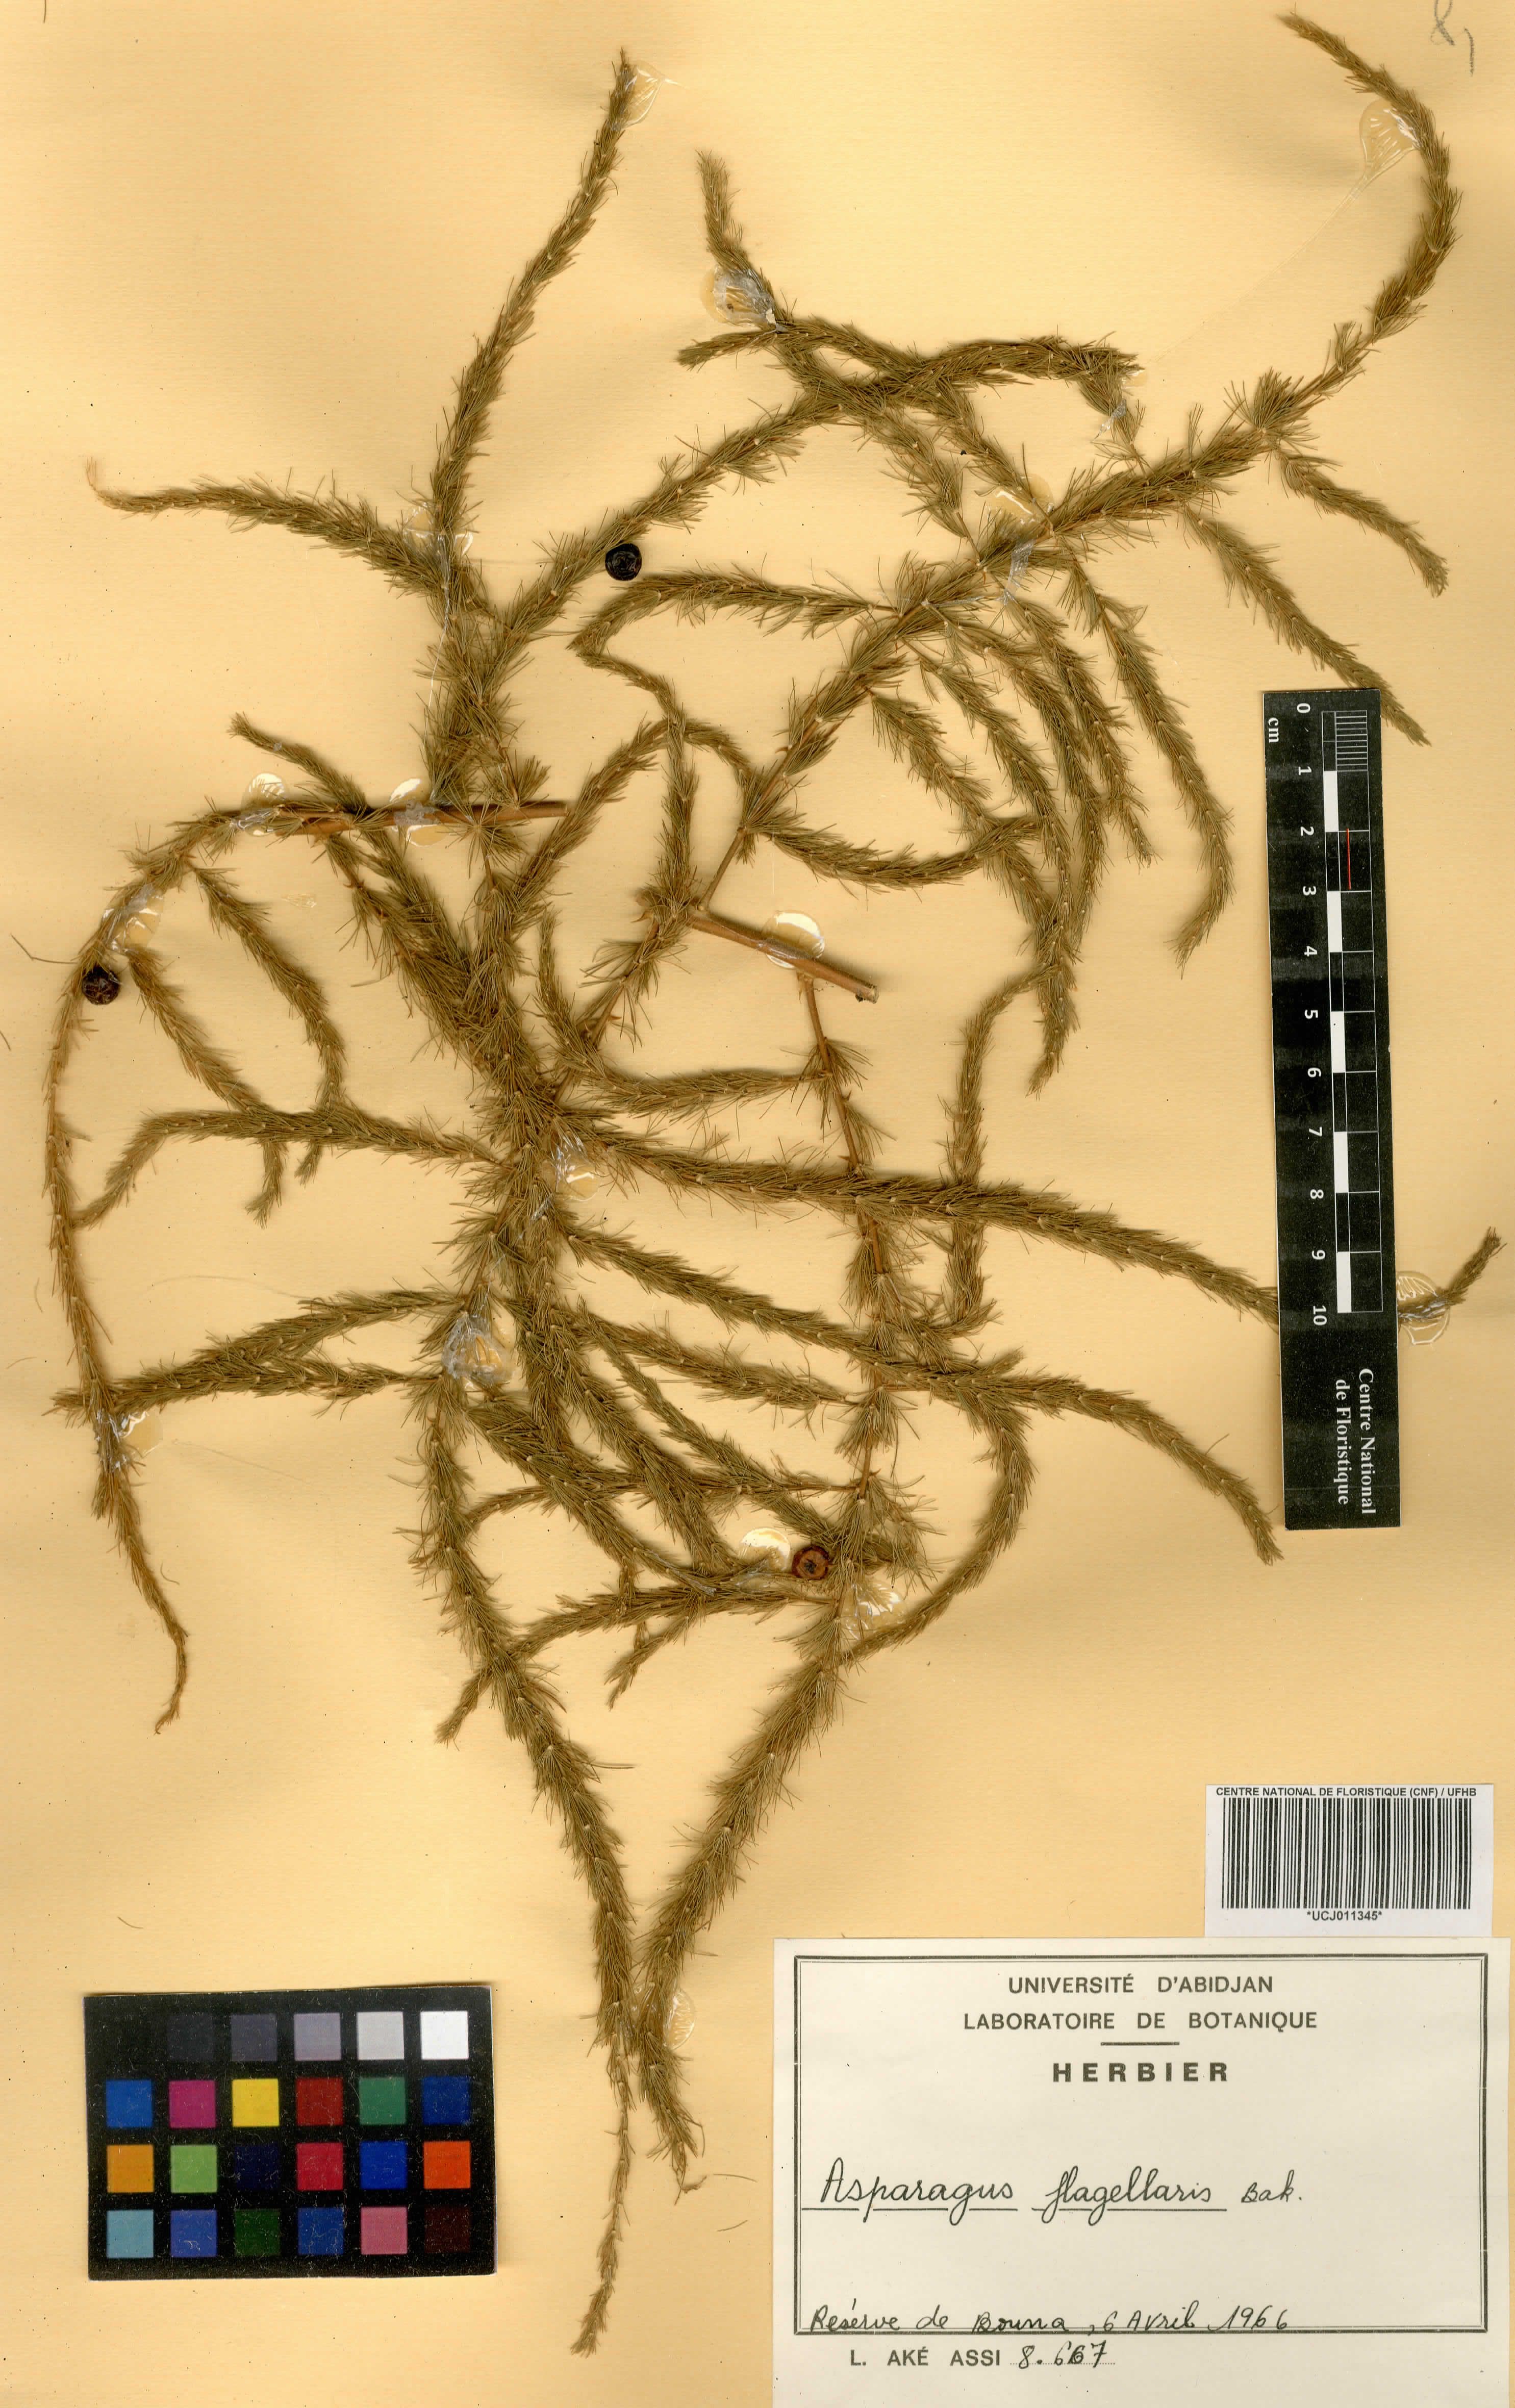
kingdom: Plantae
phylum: Tracheophyta
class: Liliopsida
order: Asparagales
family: Asparagaceae
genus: Asparagus
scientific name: Asparagus flagellaris
